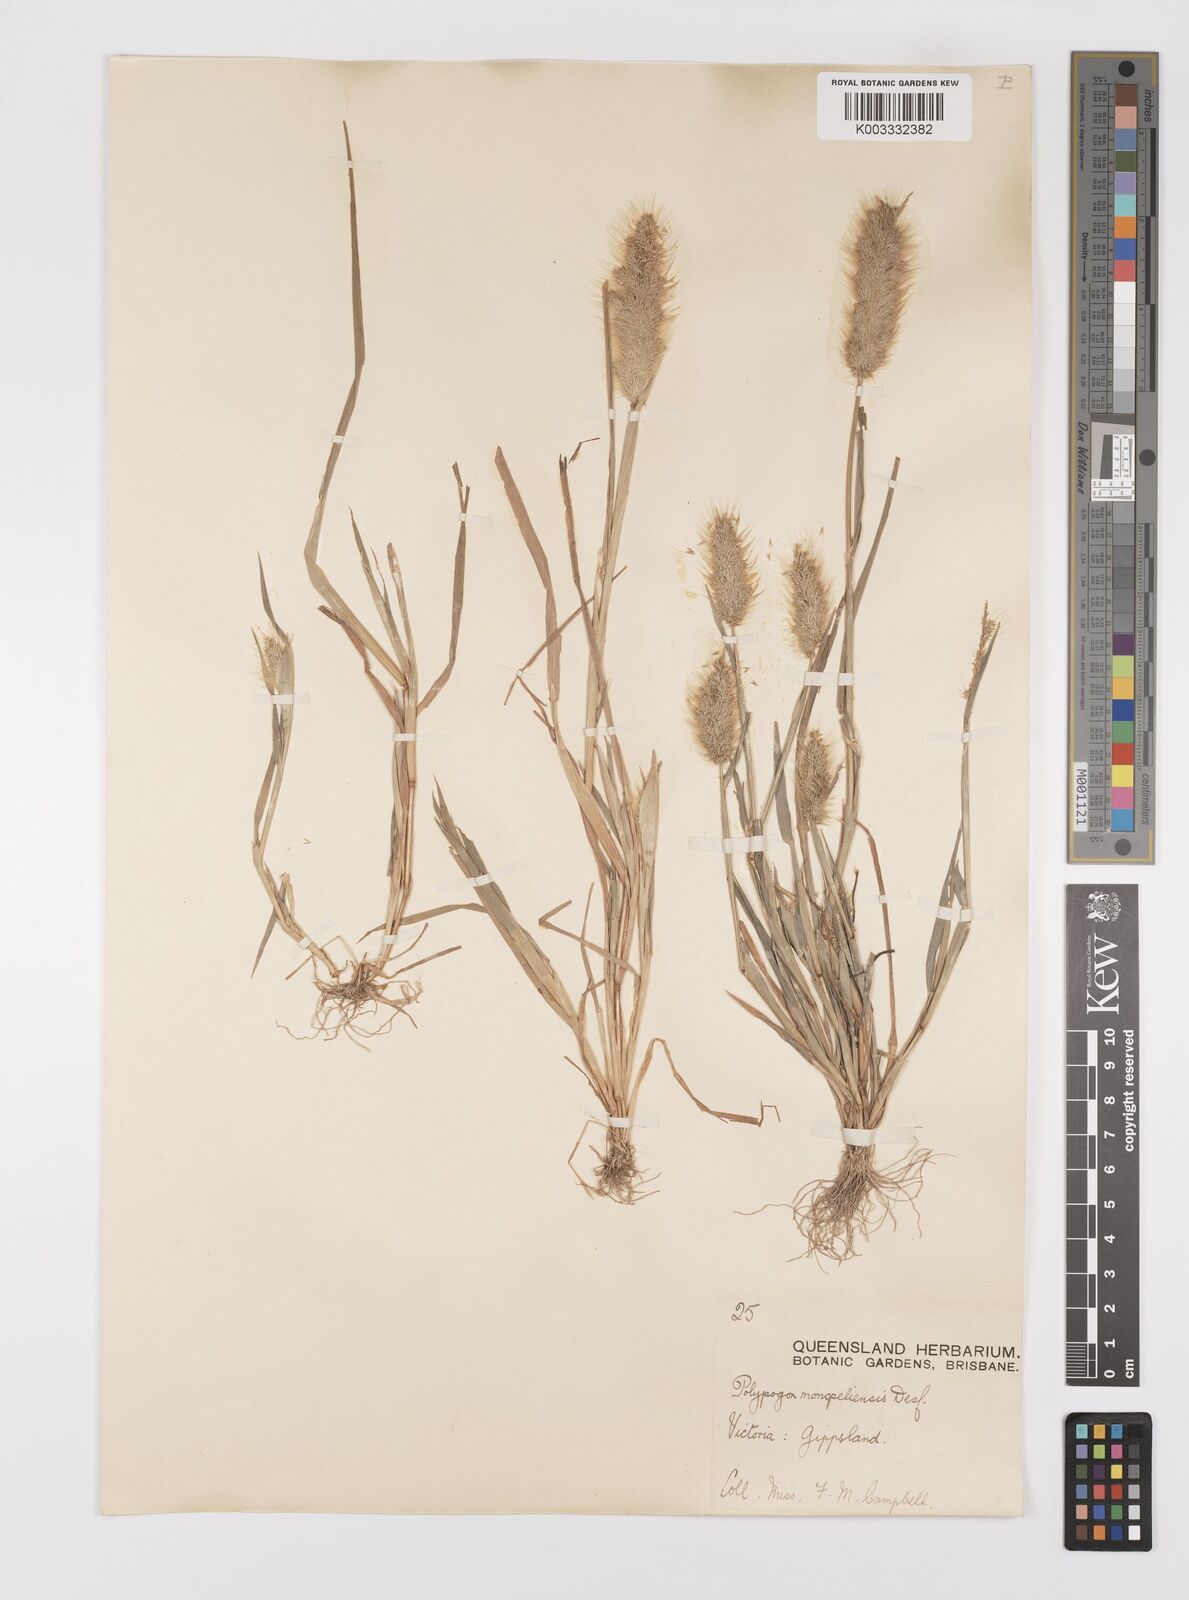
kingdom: Plantae
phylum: Tracheophyta
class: Liliopsida
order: Poales
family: Poaceae
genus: Polypogon
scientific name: Polypogon monspeliensis
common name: Annual rabbitsfoot grass
